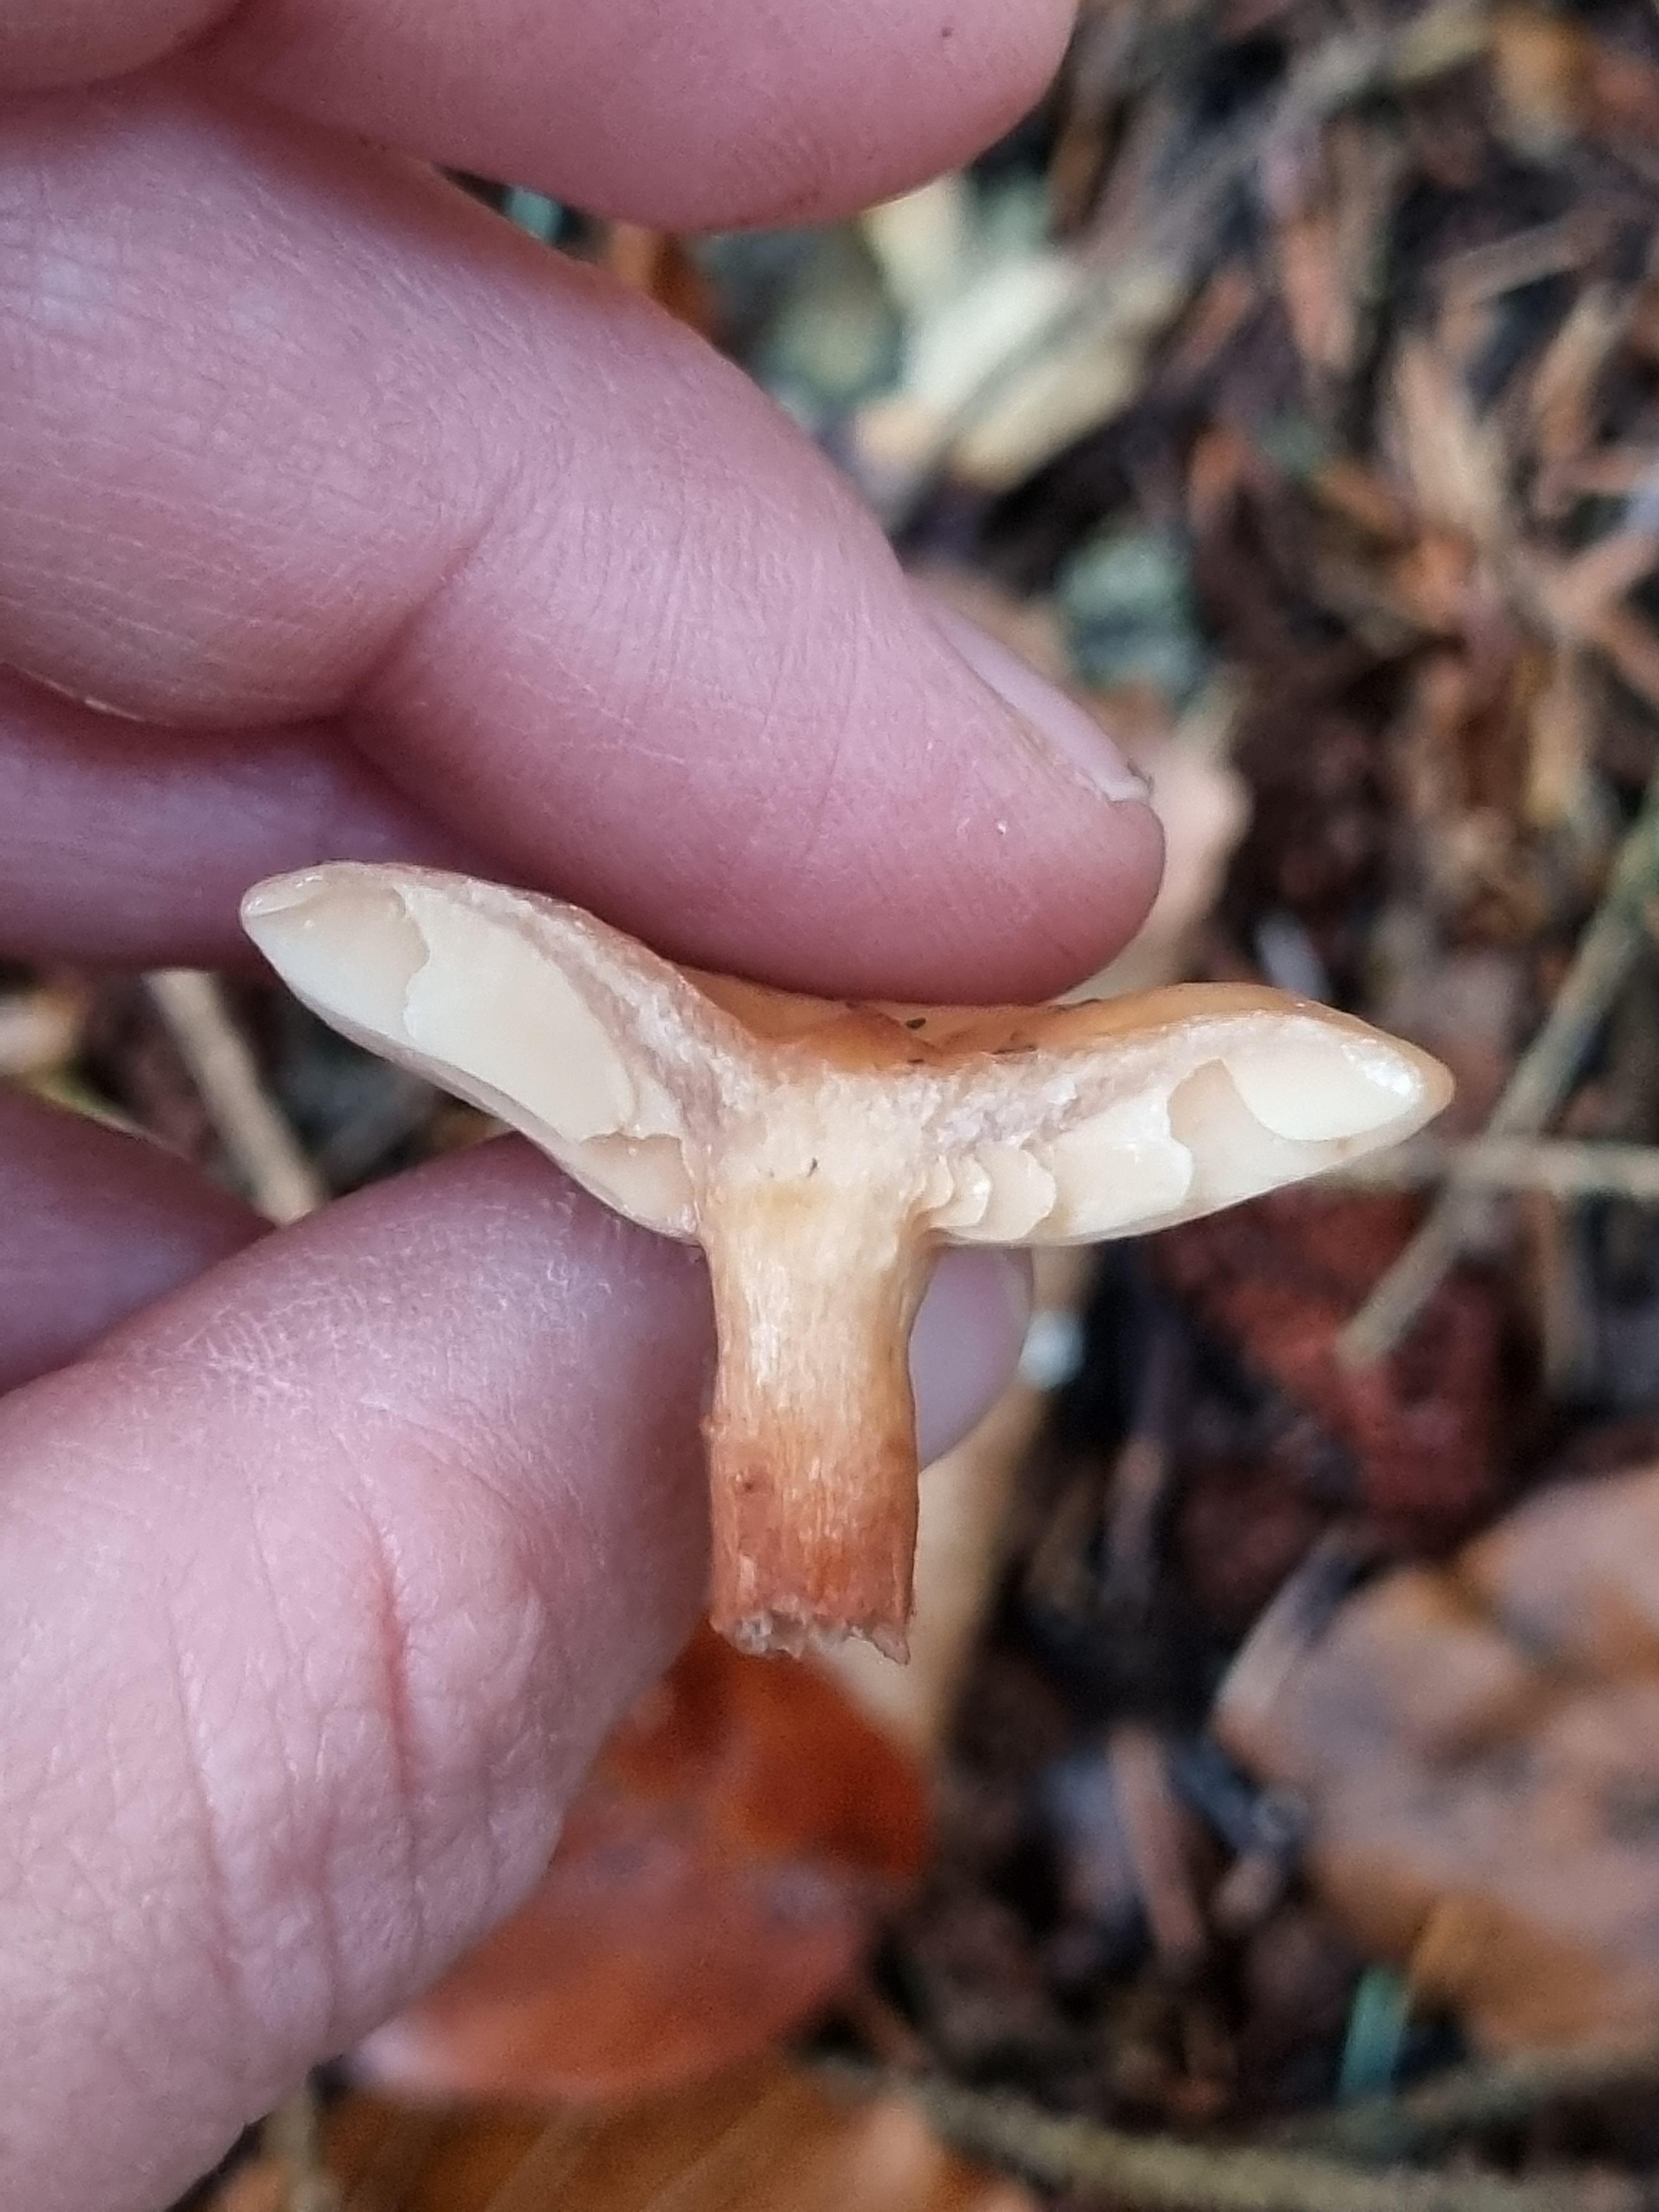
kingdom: Fungi
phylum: Basidiomycota
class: Agaricomycetes
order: Russulales
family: Russulaceae
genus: Lactarius
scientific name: Lactarius tabidus
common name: rynket mælkehat
